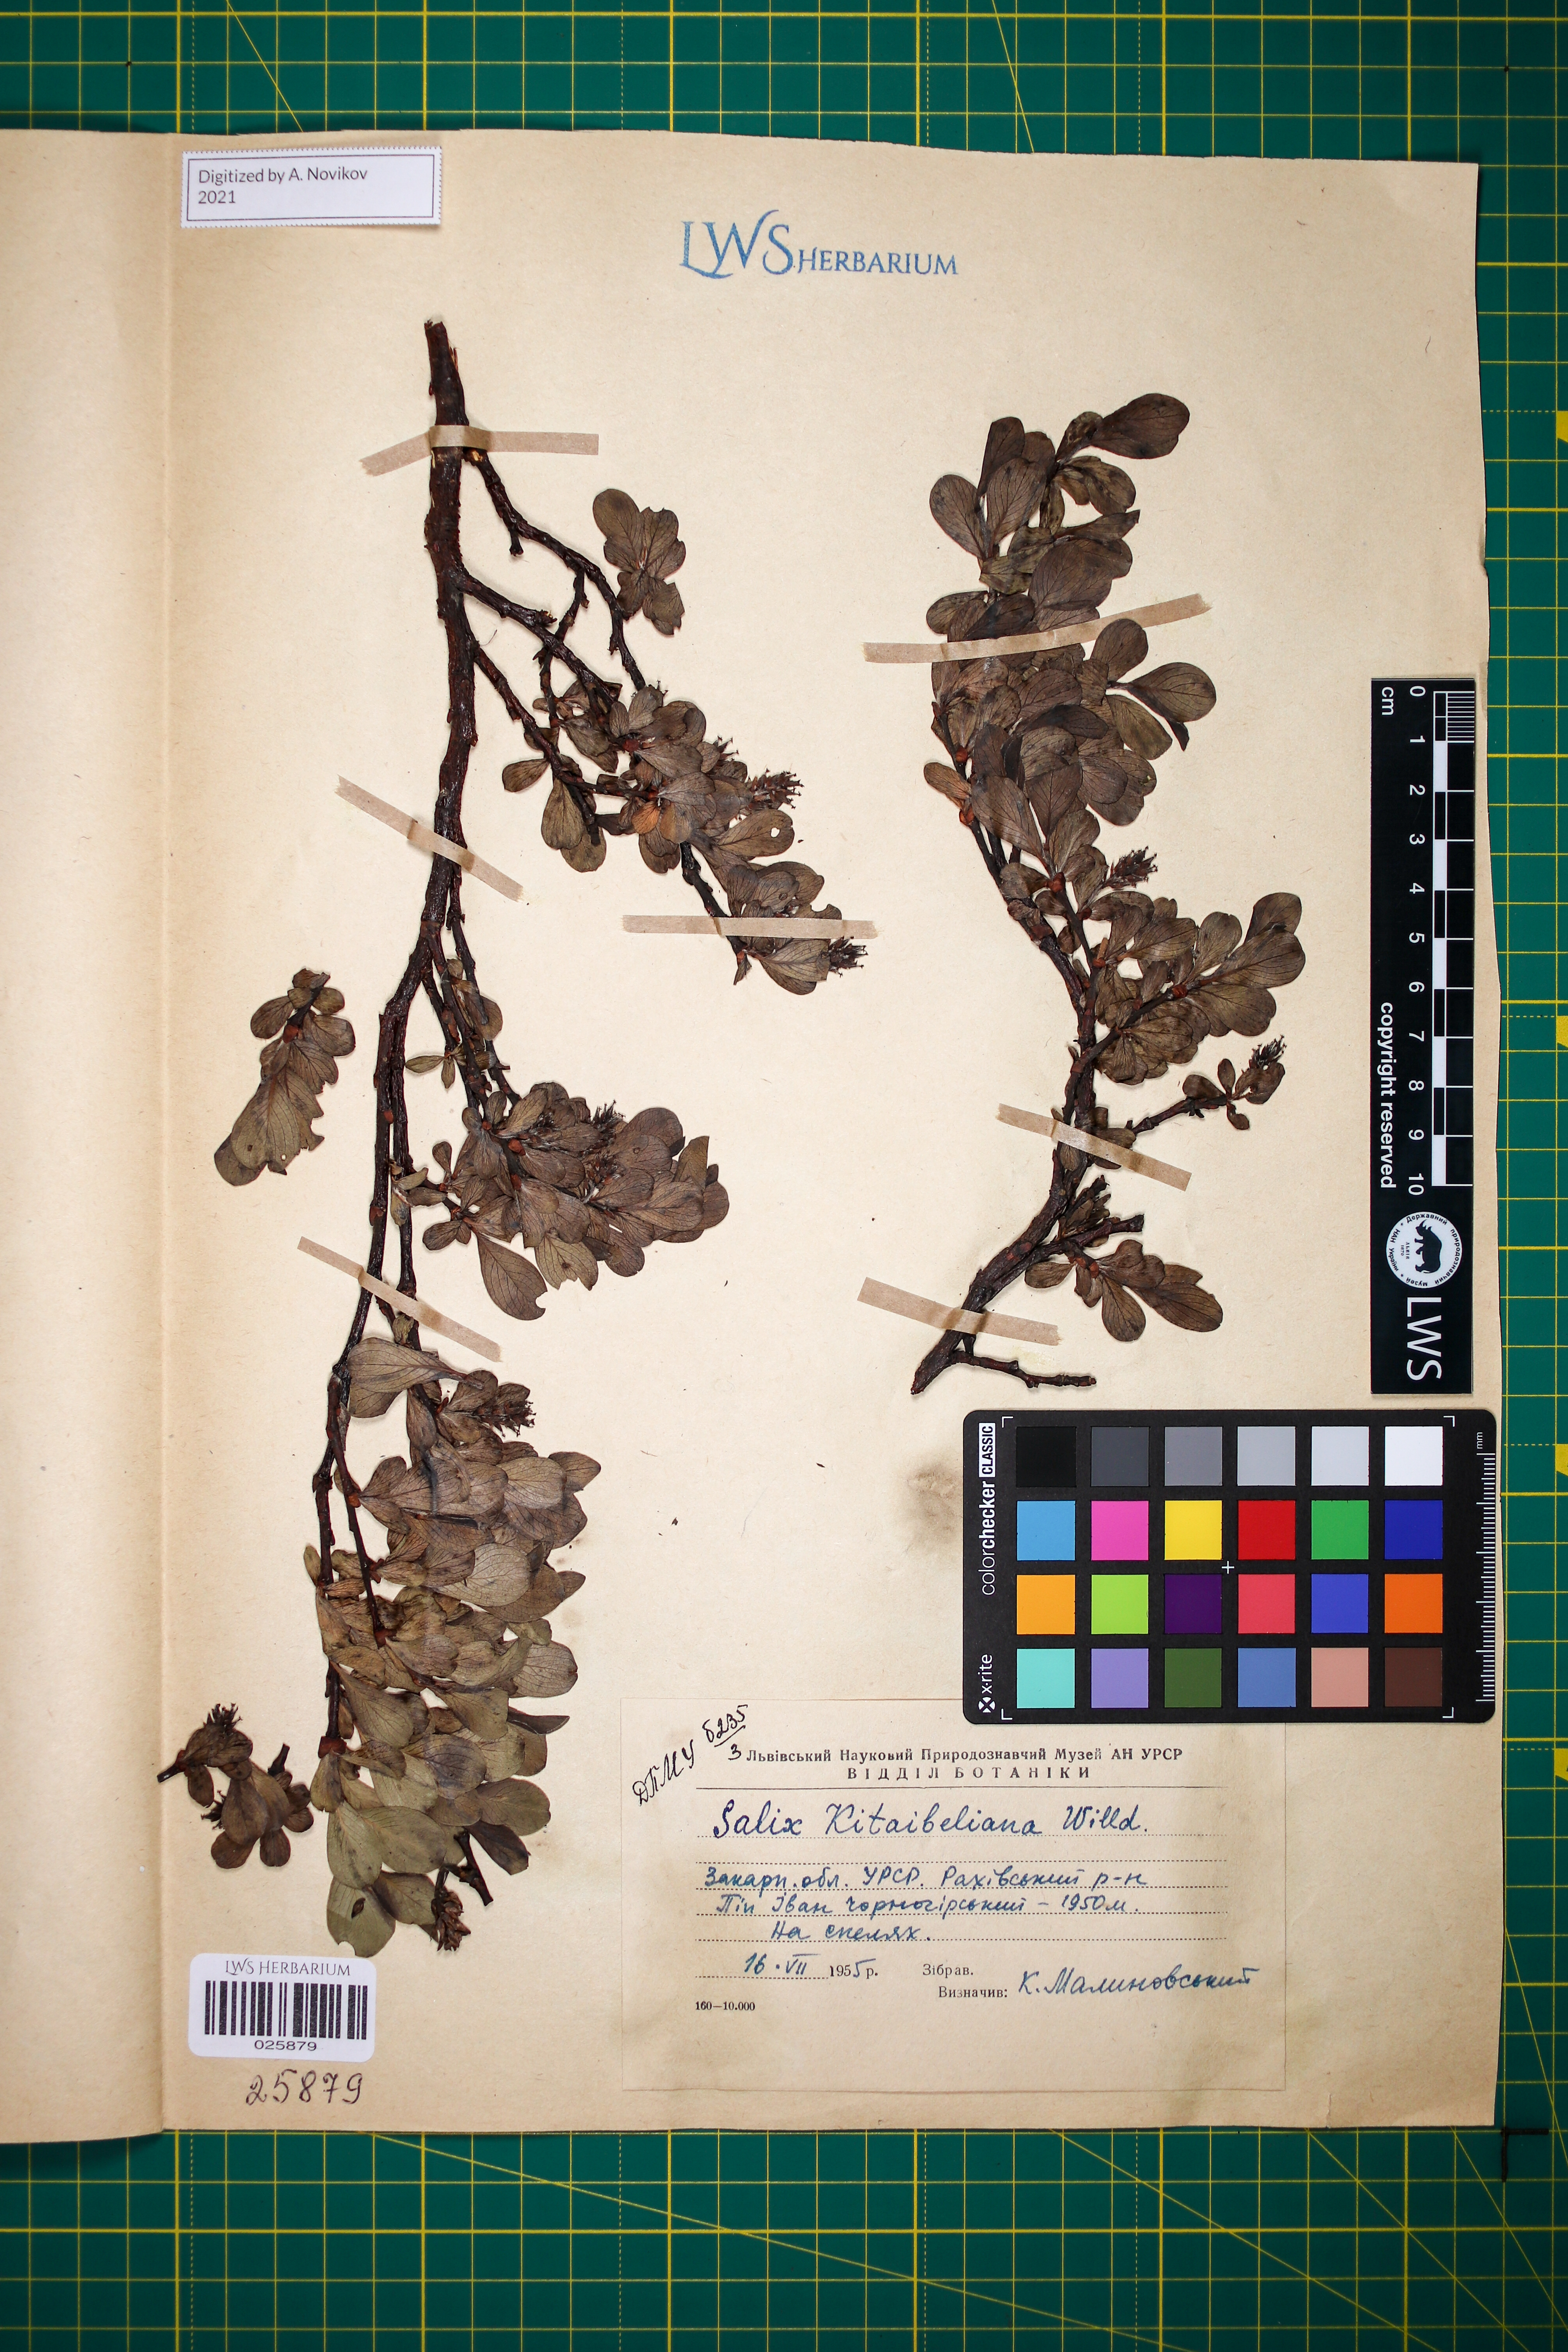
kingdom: Plantae
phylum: Tracheophyta
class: Magnoliopsida
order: Malpighiales
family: Salicaceae
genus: Salix
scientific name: Salix retusa
